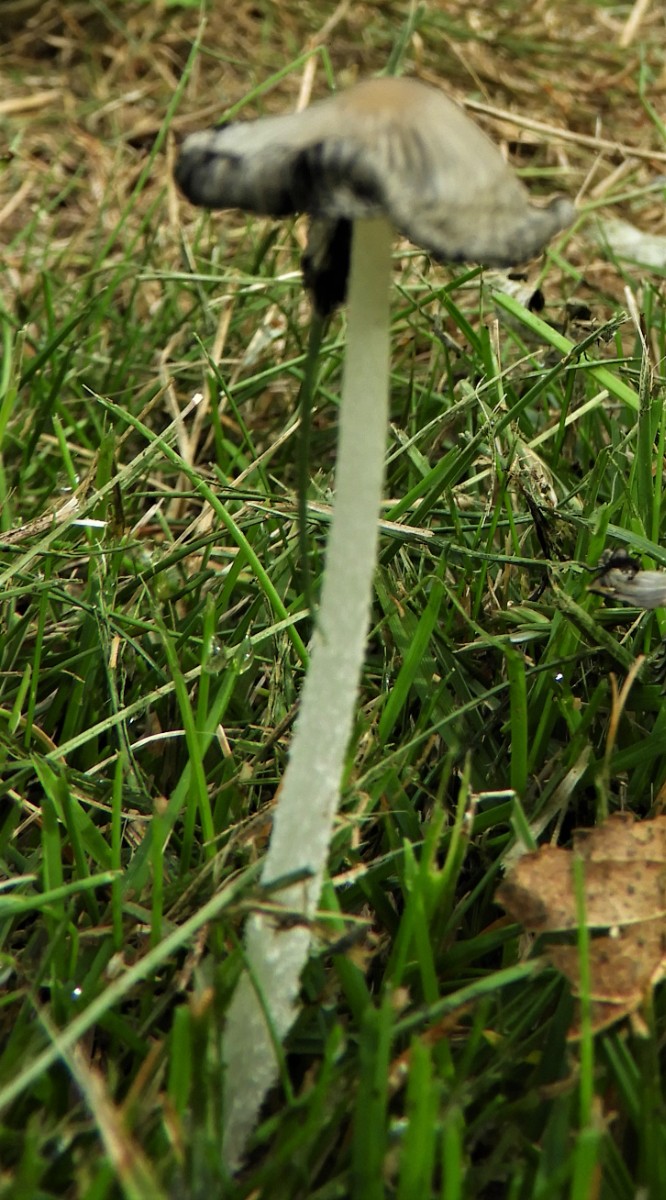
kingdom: Fungi
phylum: Basidiomycota
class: Agaricomycetes
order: Agaricales
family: Psathyrellaceae
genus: Coprinopsis
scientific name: Coprinopsis lagopus
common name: dunstokket blækhat
